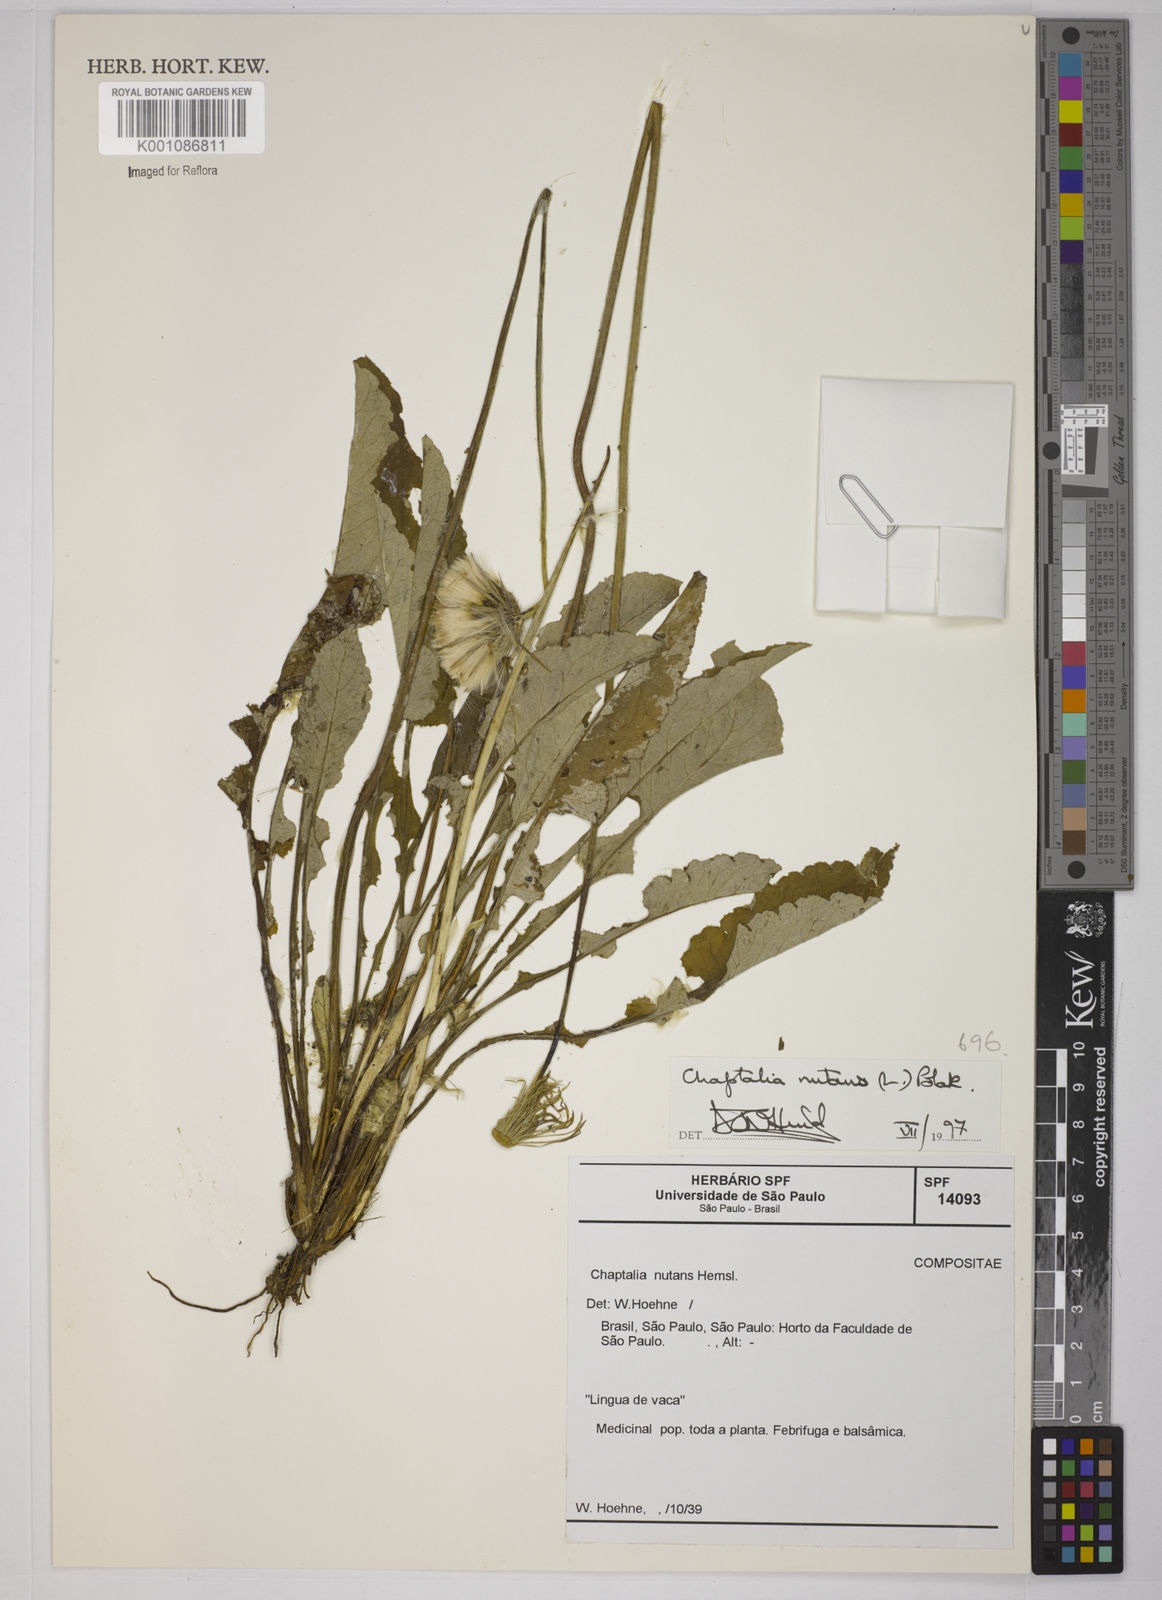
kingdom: Plantae
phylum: Tracheophyta
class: Magnoliopsida
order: Asterales
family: Asteraceae
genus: Chaptalia
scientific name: Chaptalia nutans
